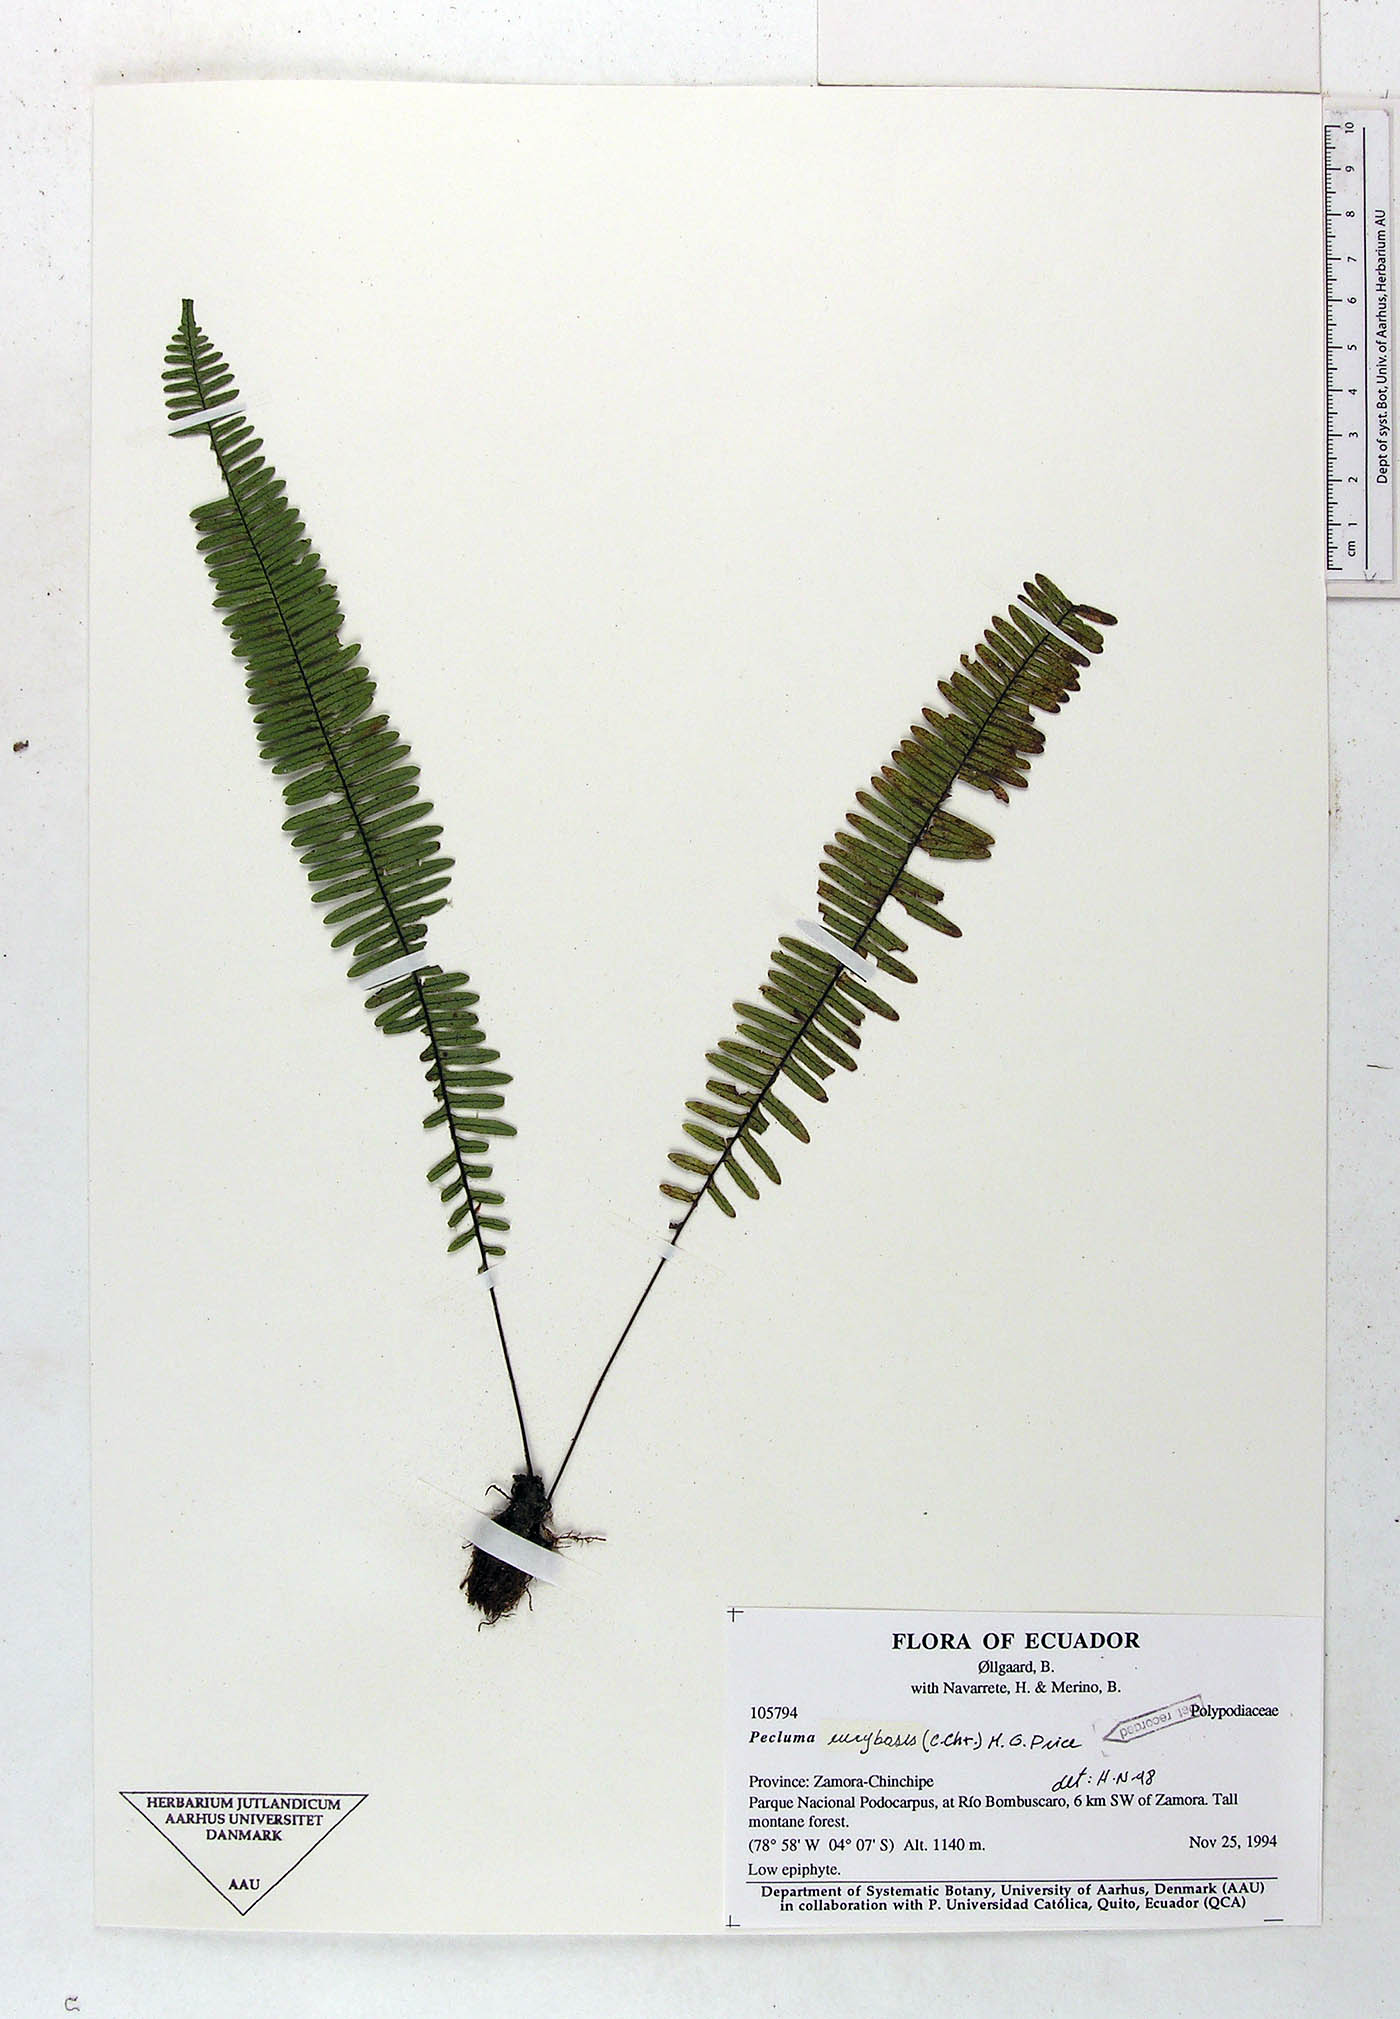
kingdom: Plantae
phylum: Tracheophyta
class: Polypodiopsida
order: Polypodiales
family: Polypodiaceae
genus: Pecluma
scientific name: Pecluma eurybasis
